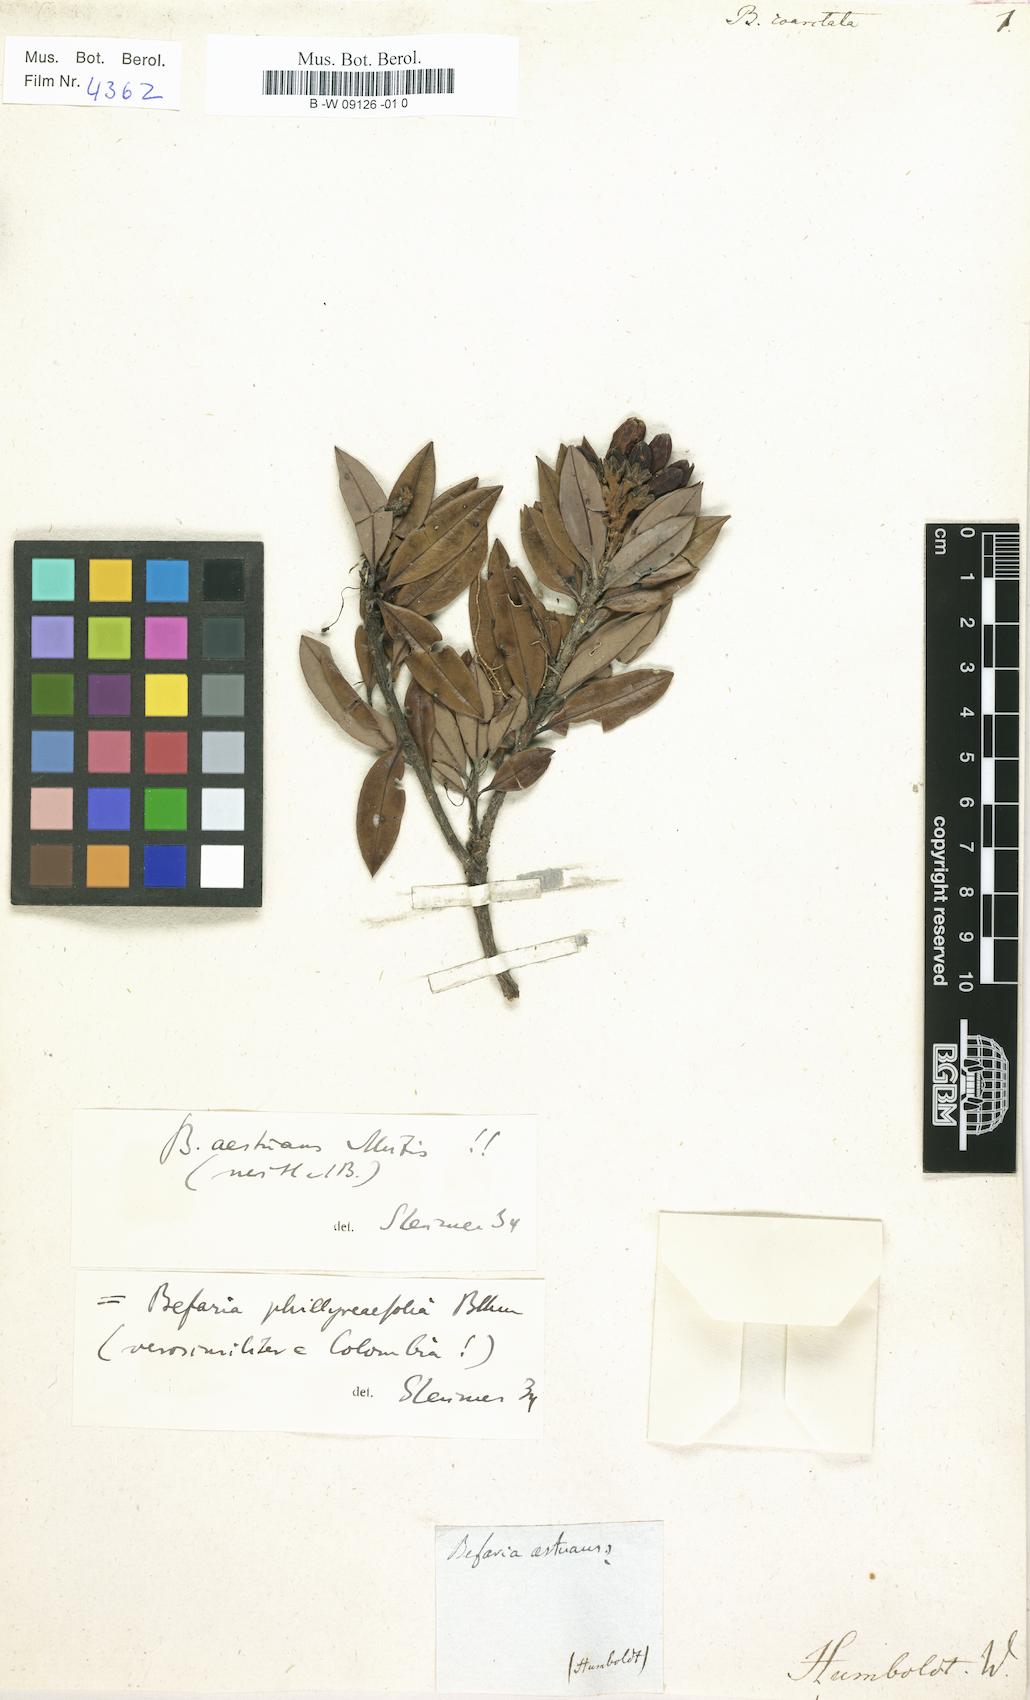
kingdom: Plantae
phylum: Tracheophyta
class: Magnoliopsida
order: Ericales
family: Ericaceae
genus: Bejaria
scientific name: Bejaria aestuans
